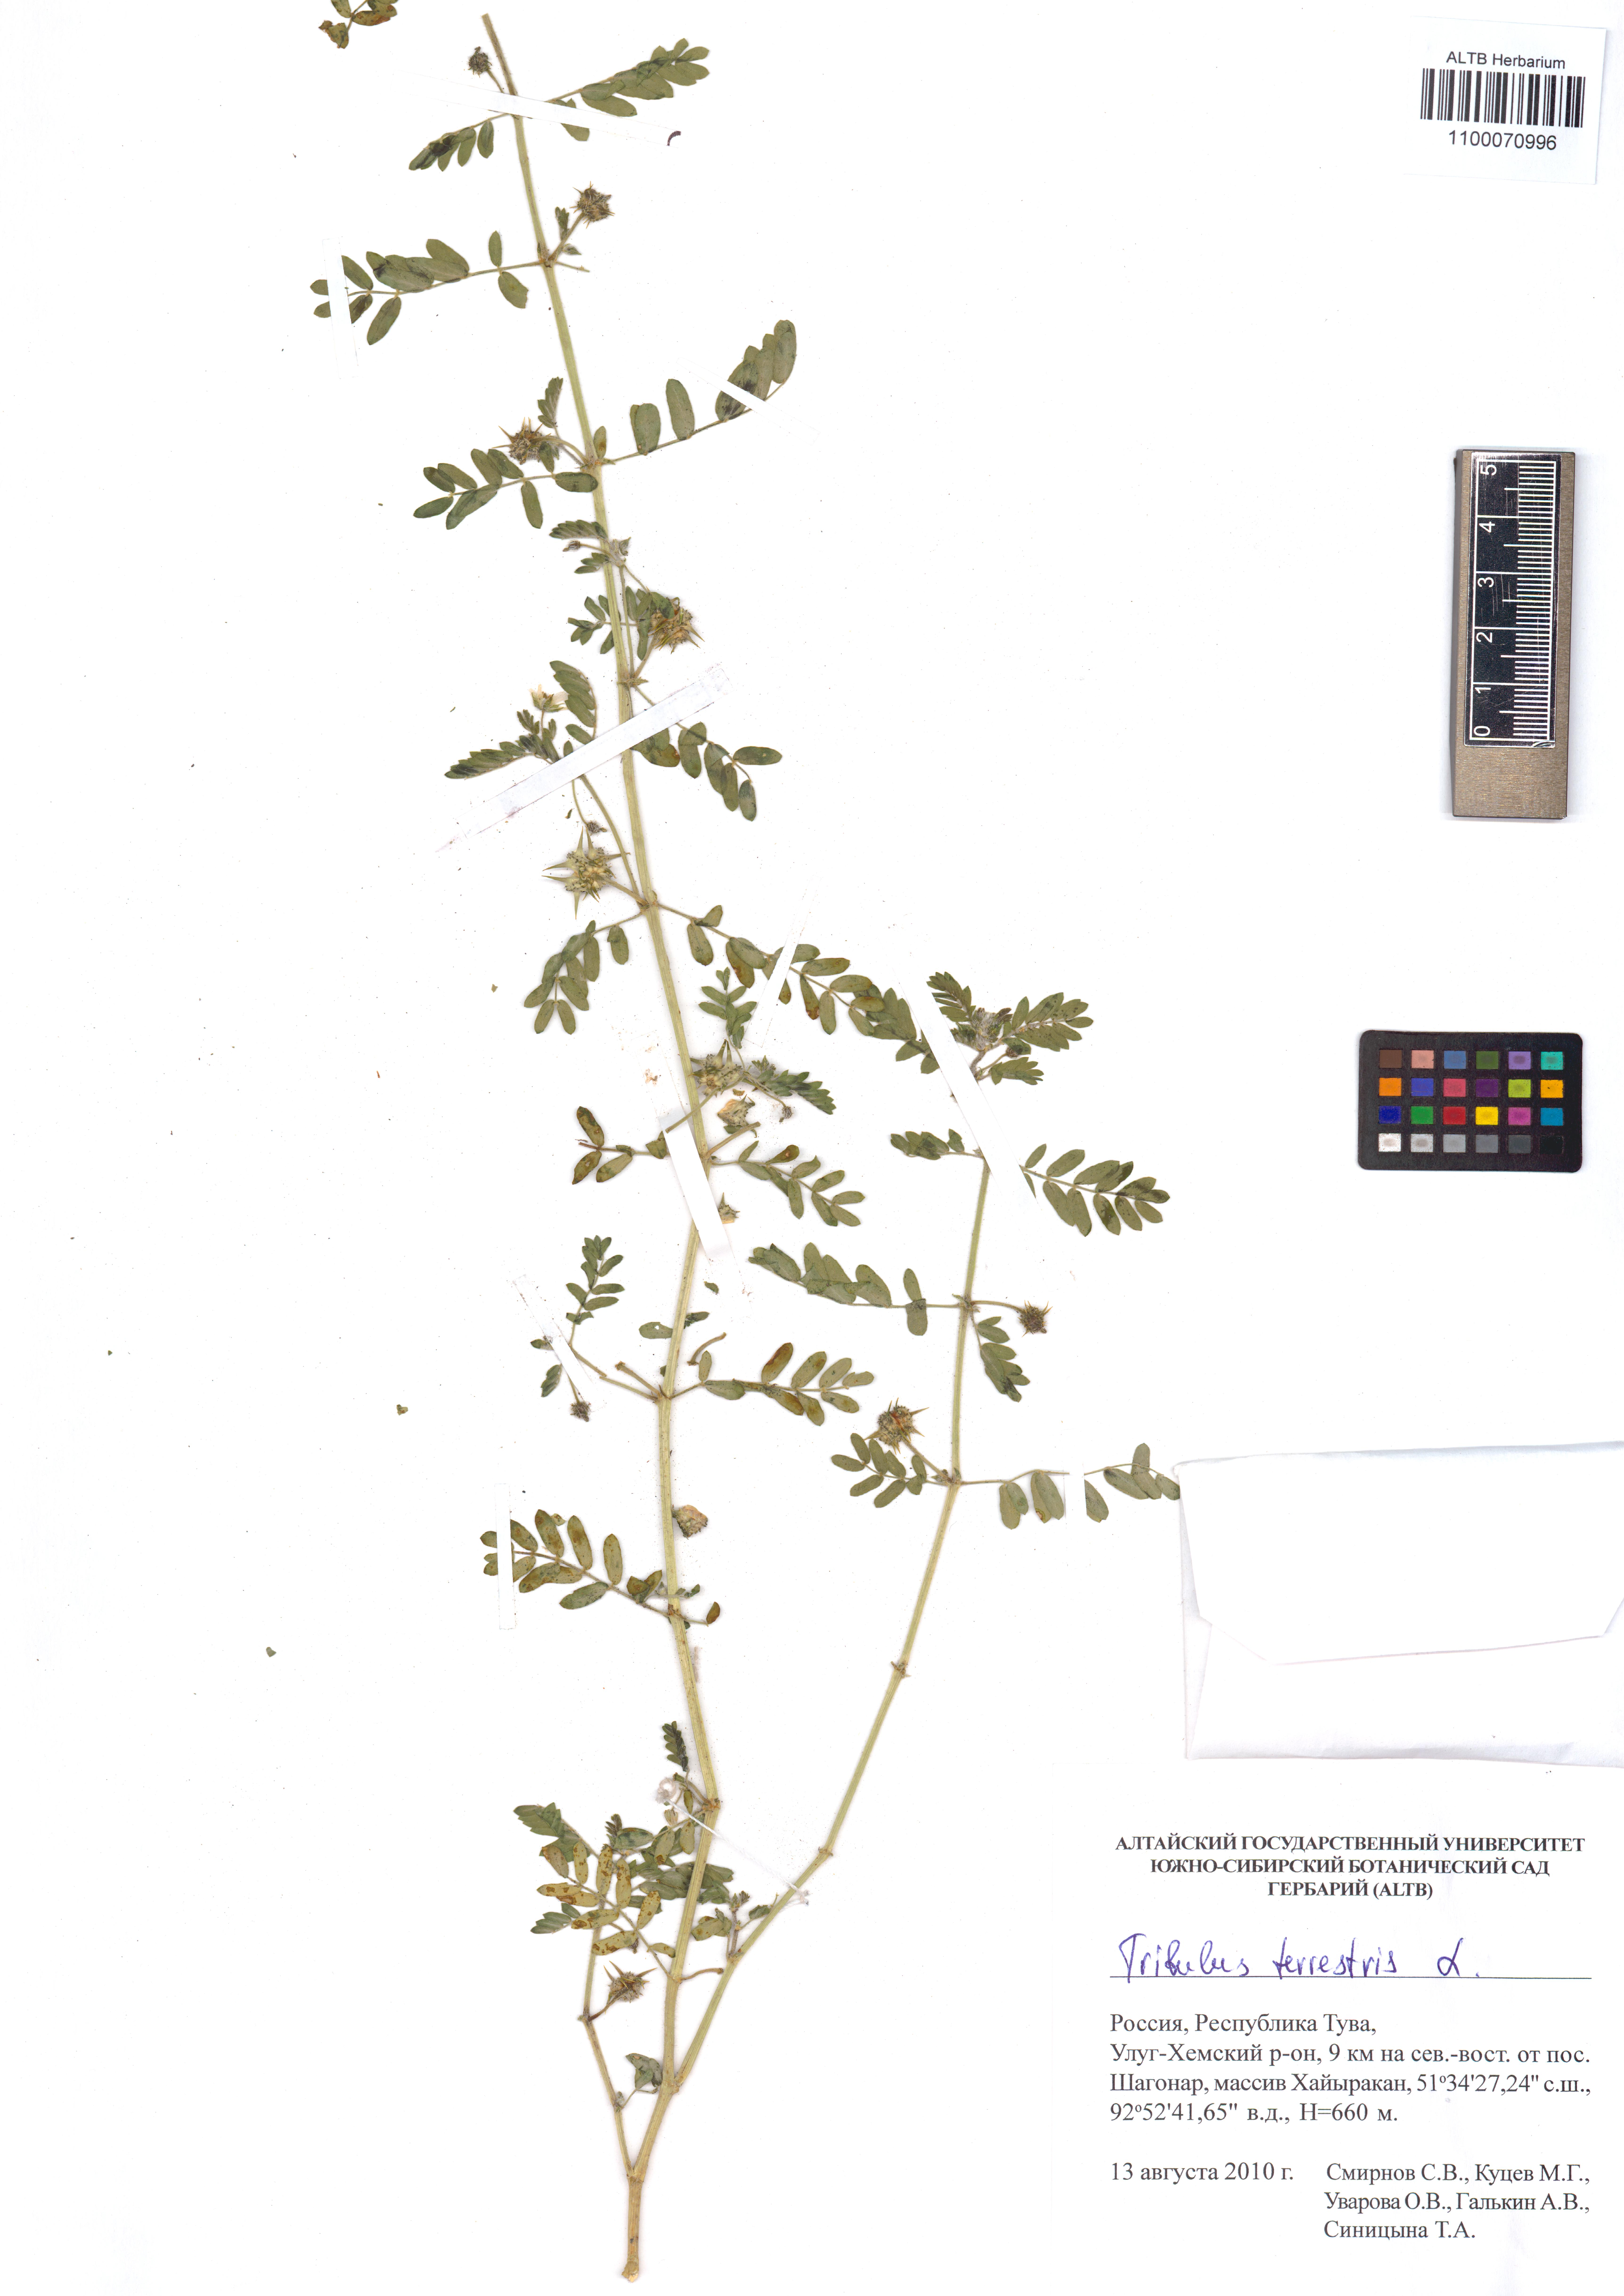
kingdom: Plantae
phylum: Tracheophyta
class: Magnoliopsida
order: Zygophyllales
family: Zygophyllaceae
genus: Tribulus
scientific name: Tribulus terrestris
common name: Puncturevine
